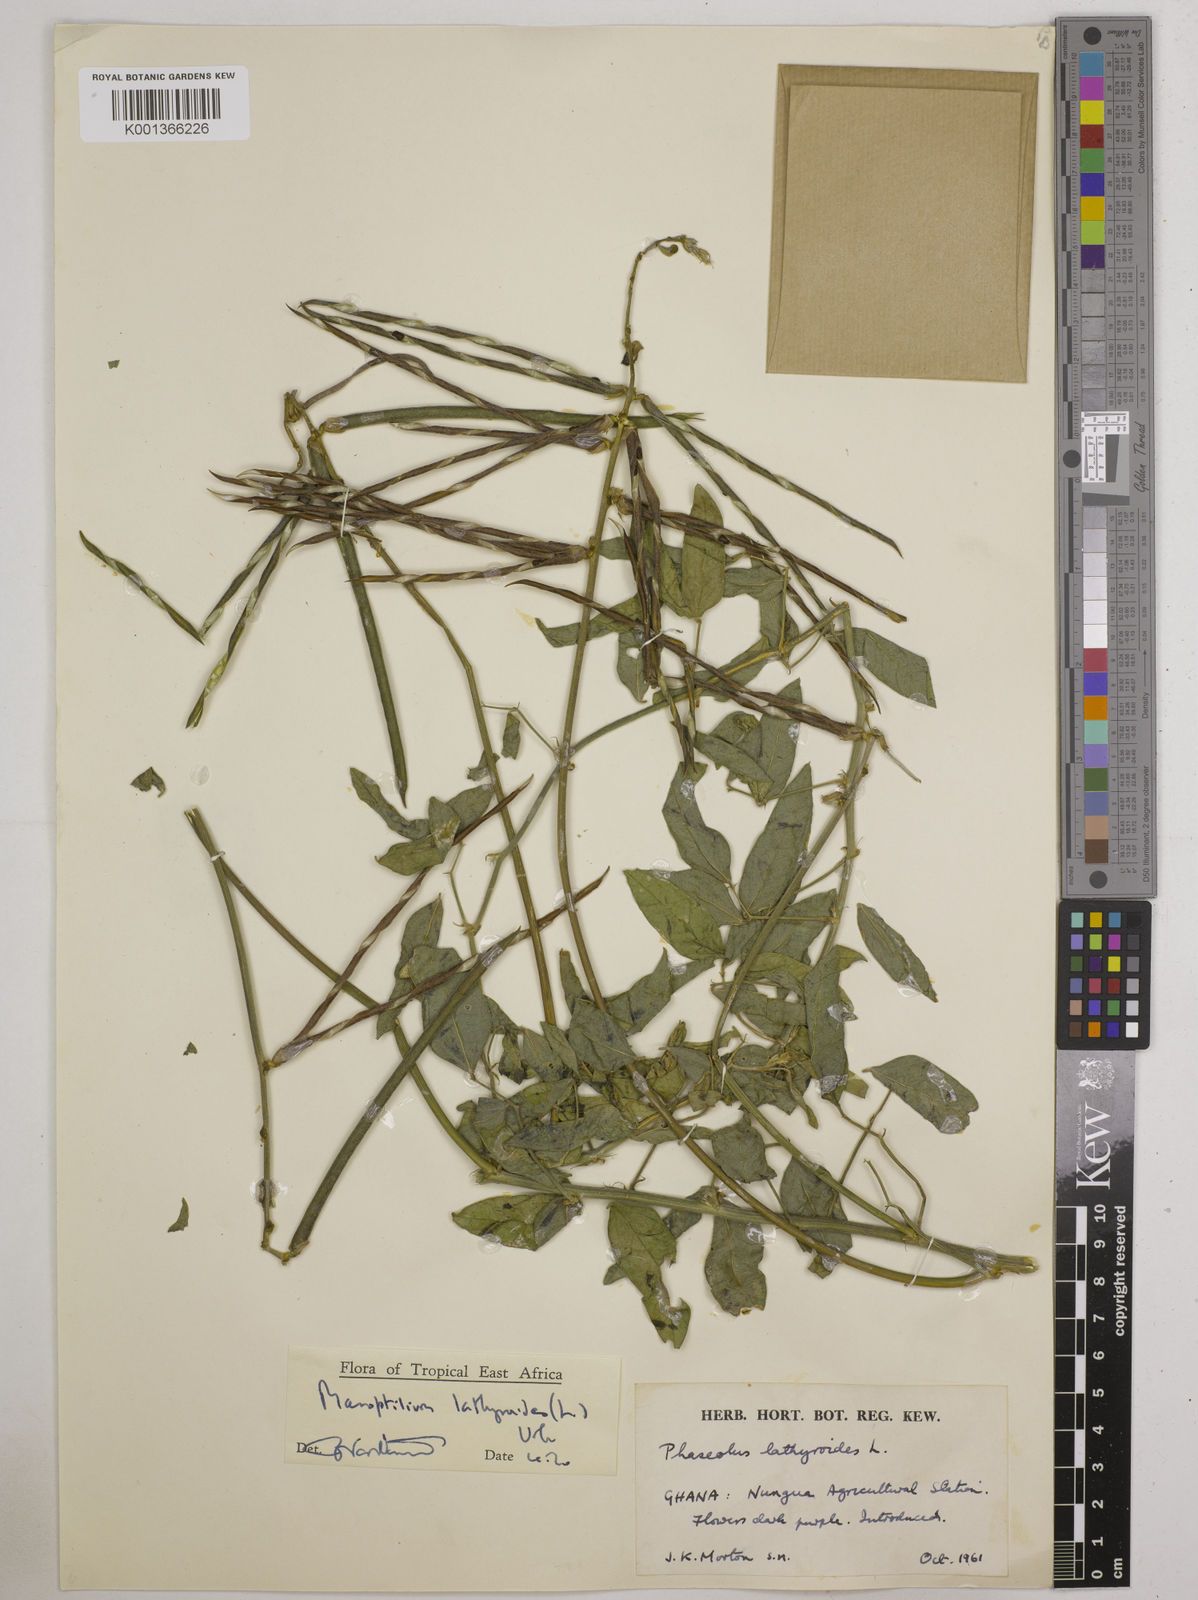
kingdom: Plantae
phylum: Tracheophyta
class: Magnoliopsida
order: Fabales
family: Fabaceae
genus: Macroptilium
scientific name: Macroptilium lathyroides
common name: Wild bushbean
